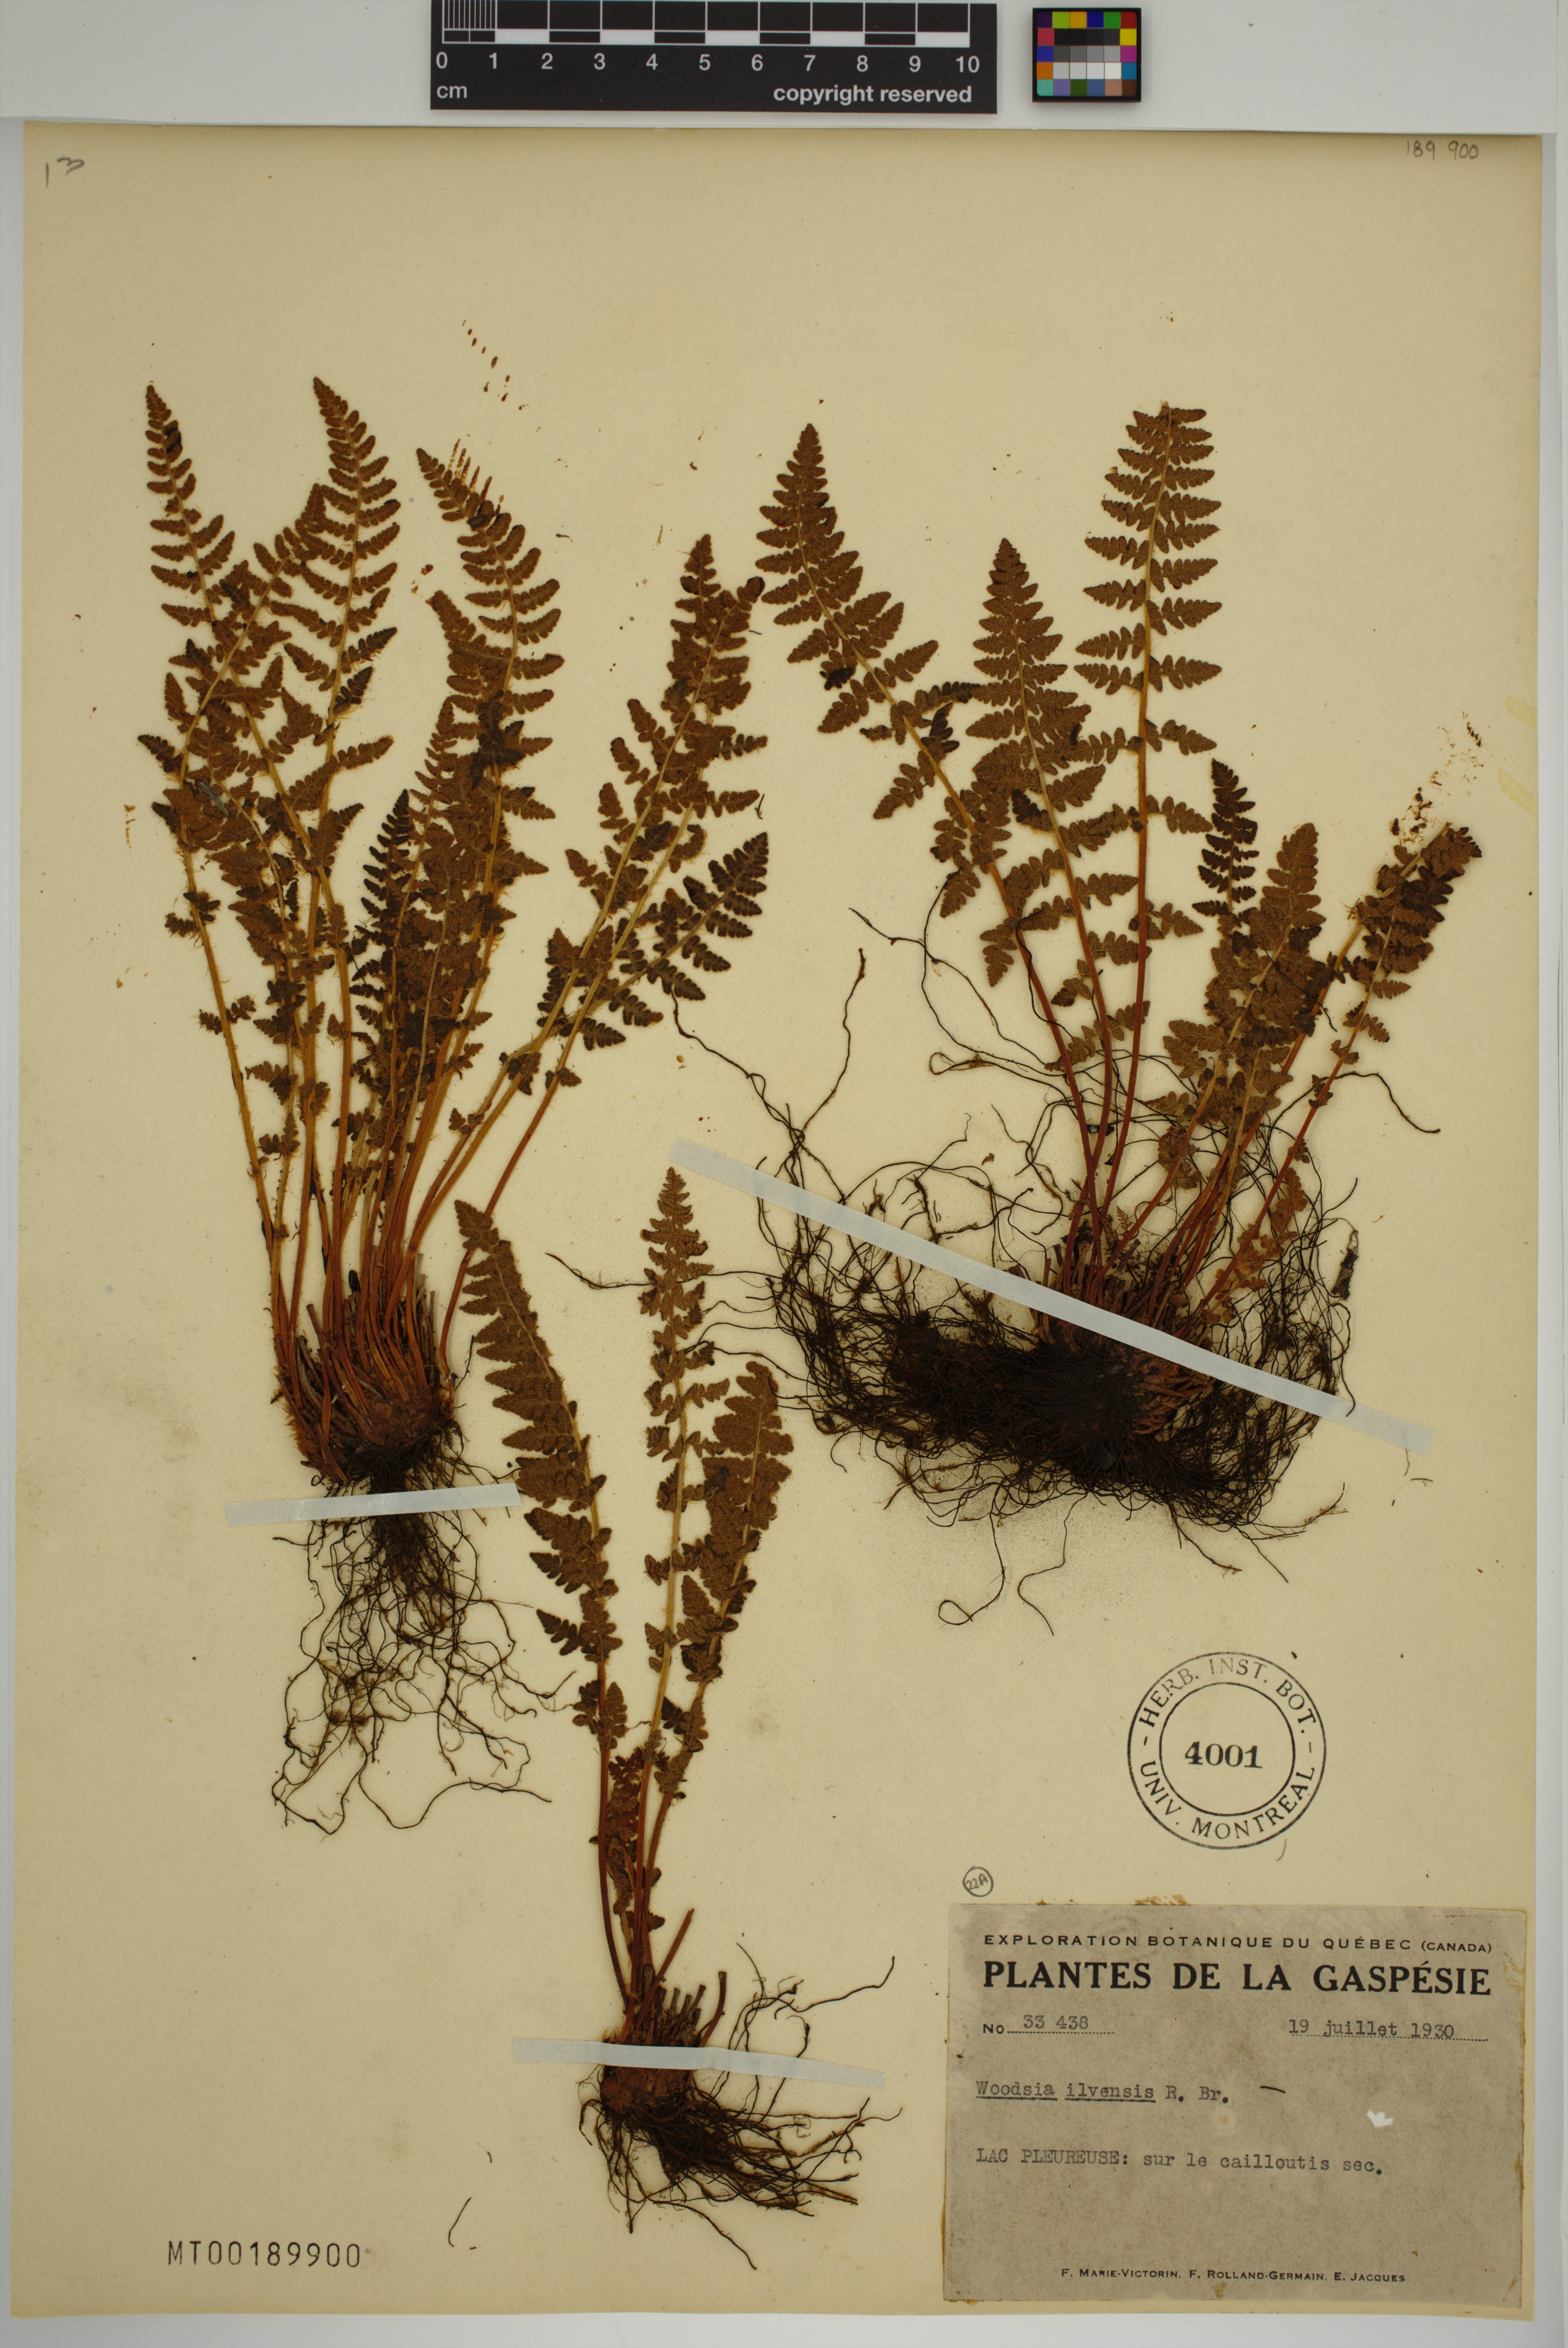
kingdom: Plantae
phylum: Tracheophyta
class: Polypodiopsida
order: Polypodiales
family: Woodsiaceae
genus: Woodsia
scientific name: Woodsia ilvensis
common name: Fragrant woodsia
